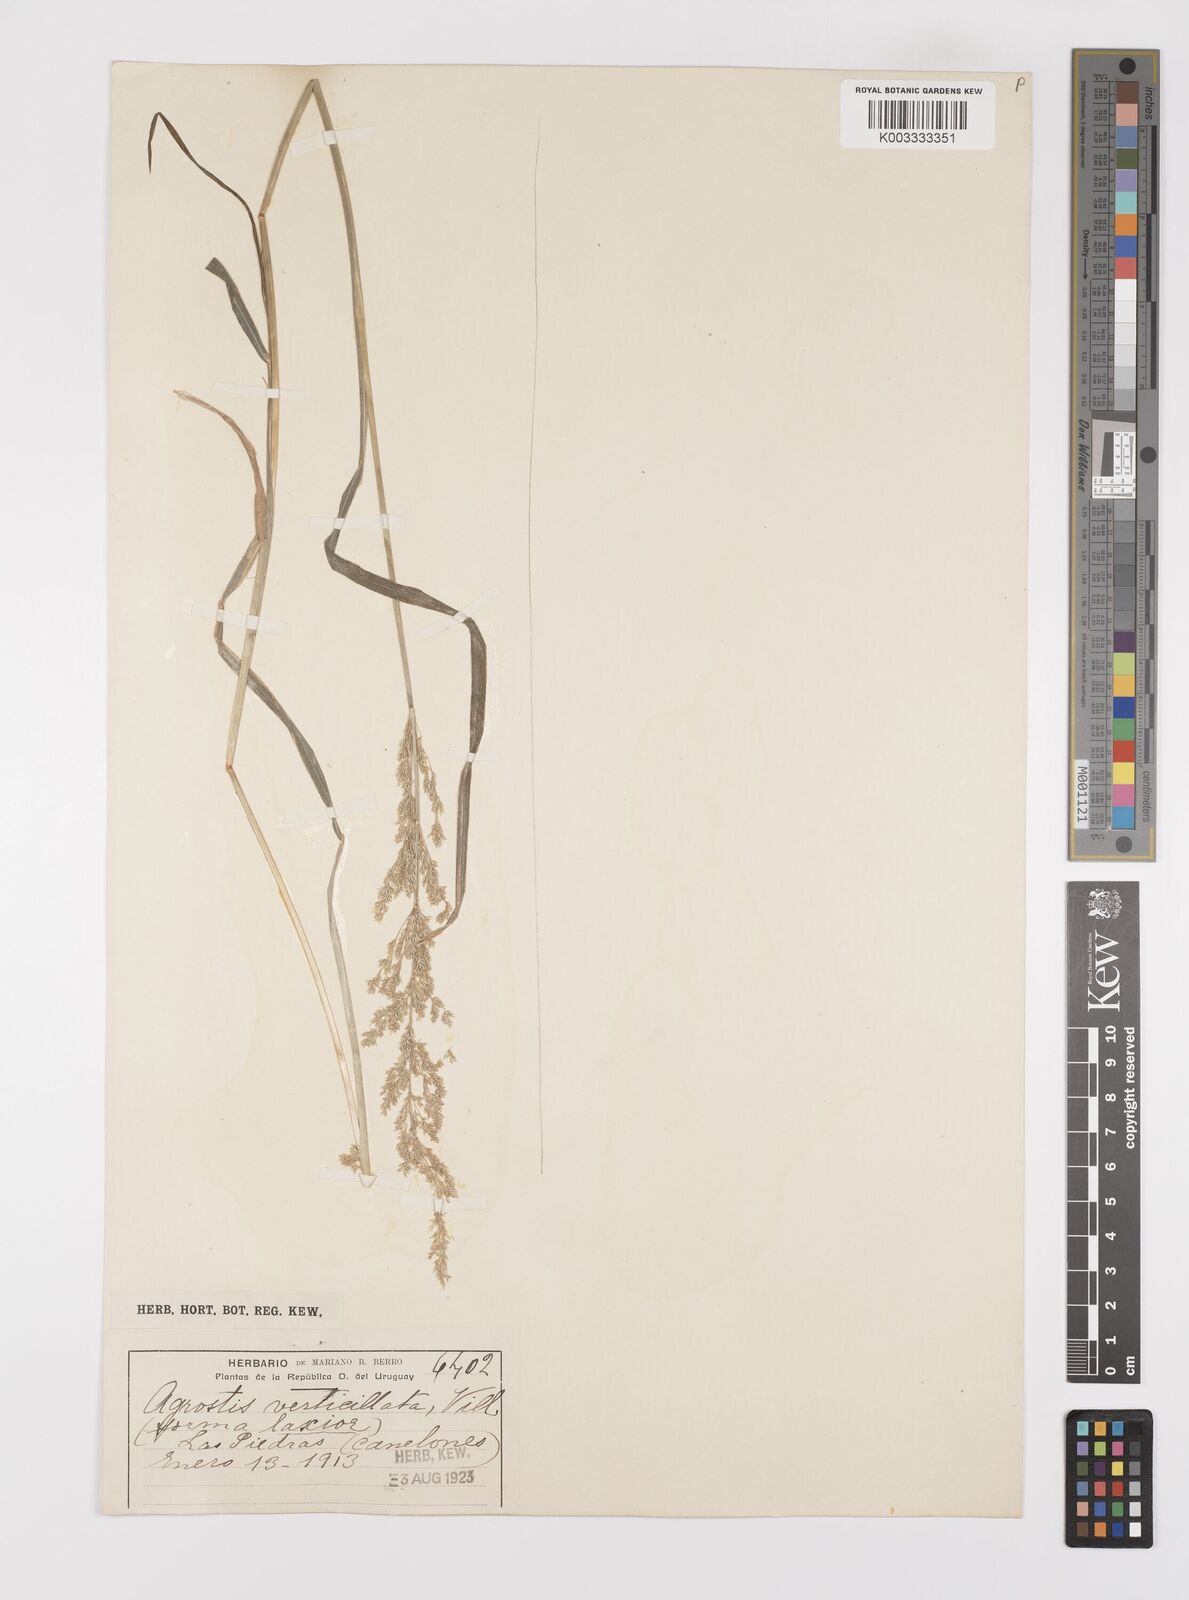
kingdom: Plantae
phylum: Tracheophyta
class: Liliopsida
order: Poales
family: Poaceae
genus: Polypogon
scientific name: Polypogon viridis
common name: Water bent
